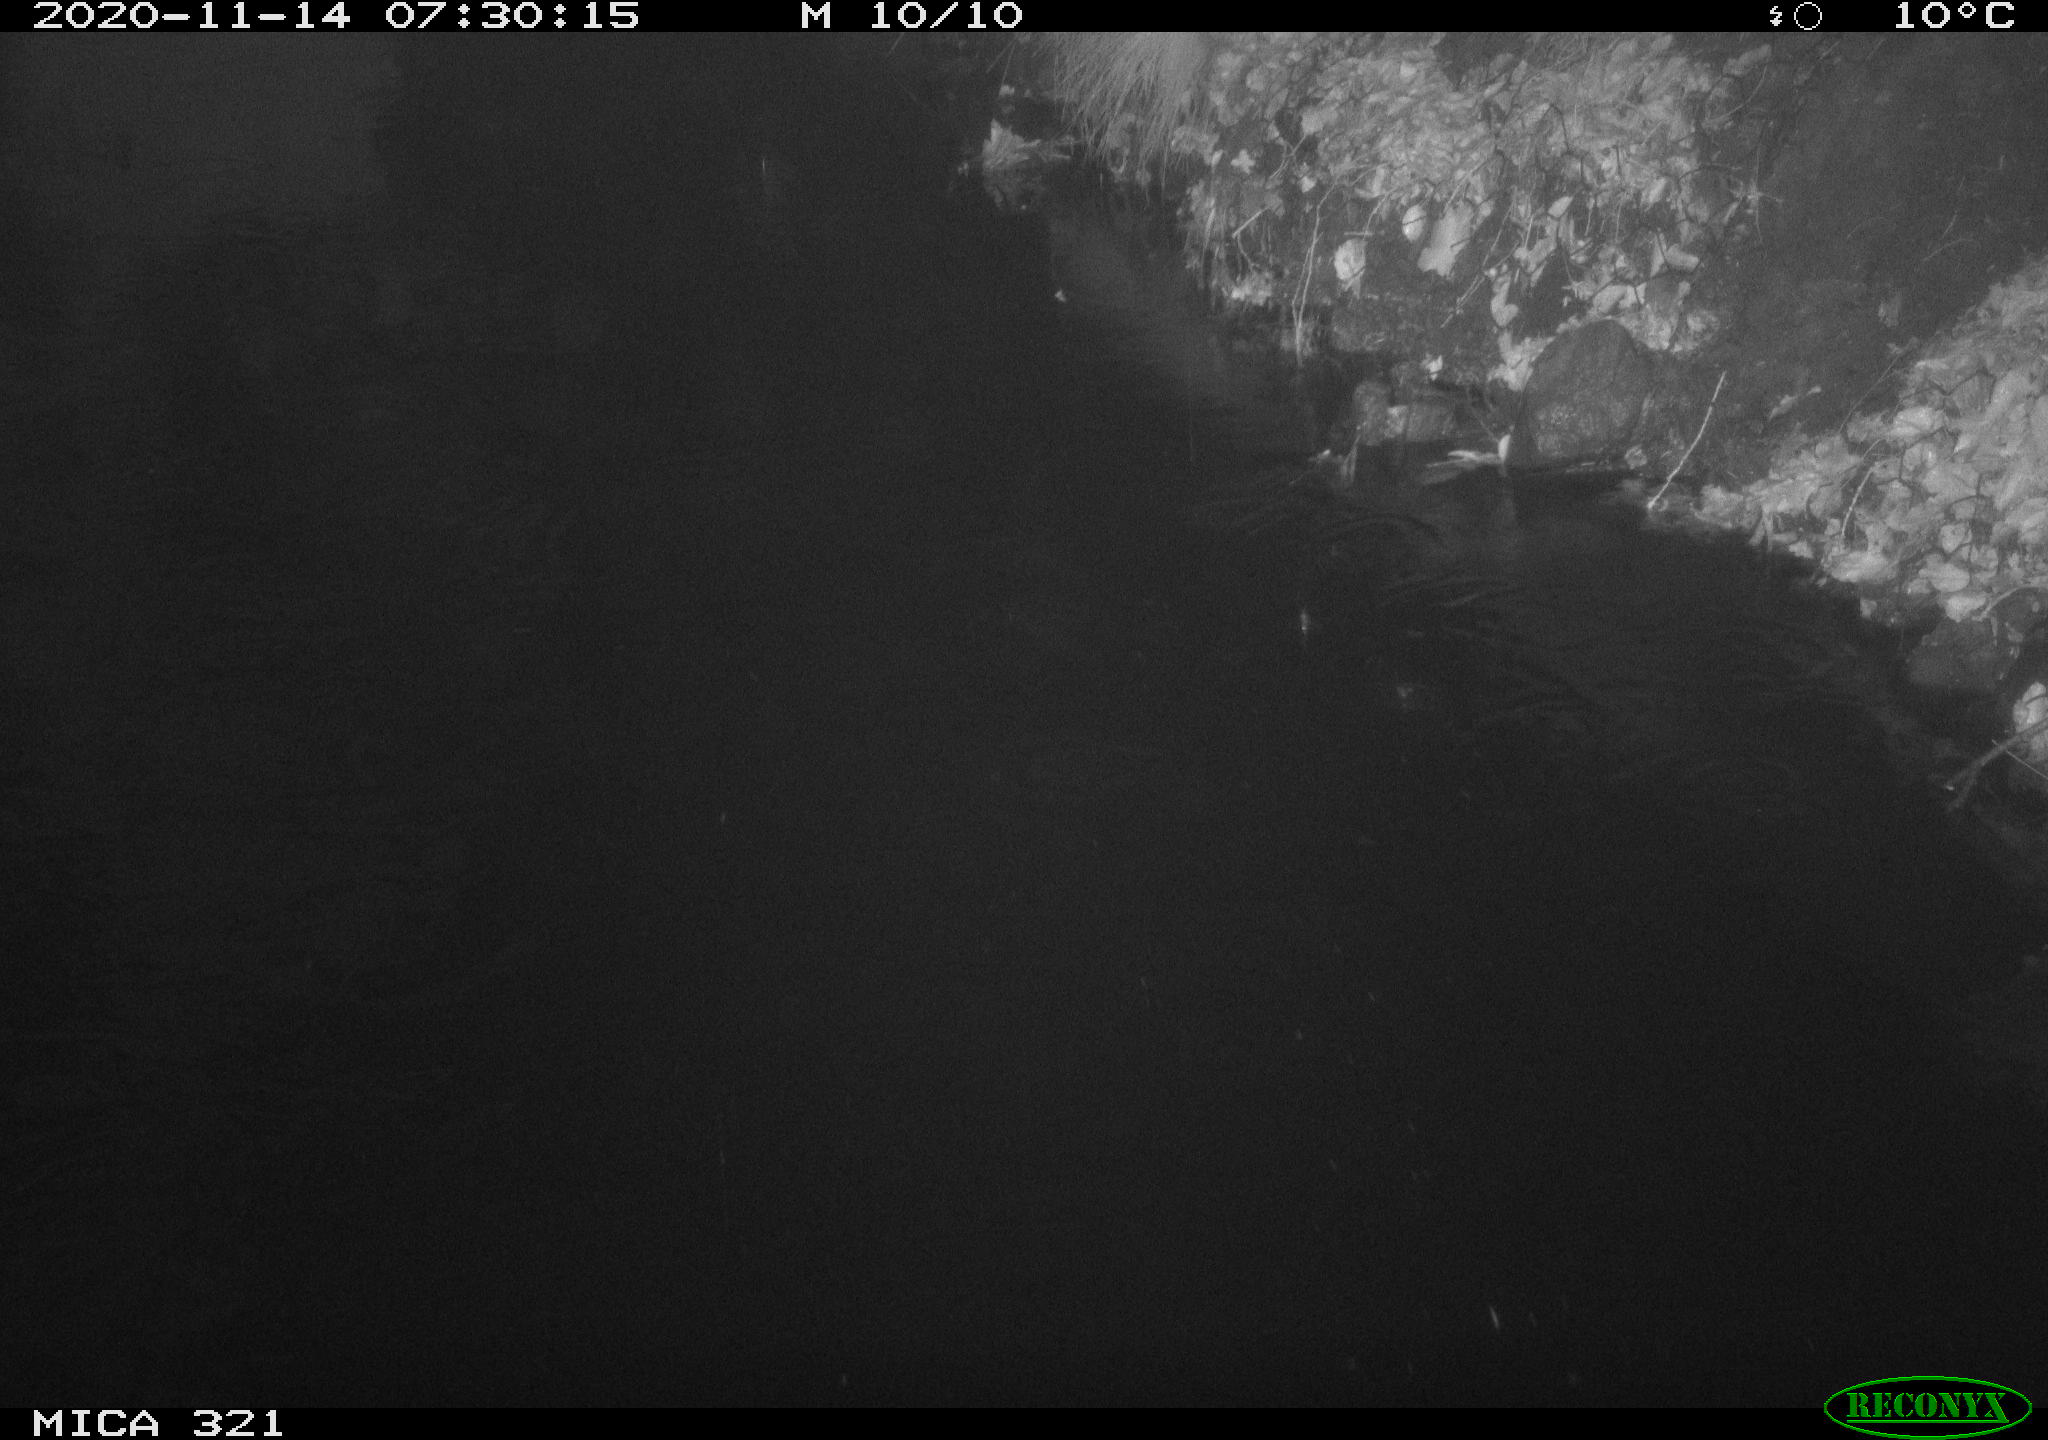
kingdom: Animalia
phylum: Chordata
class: Aves
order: Anseriformes
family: Anatidae
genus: Anas
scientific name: Anas platyrhynchos
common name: Mallard
